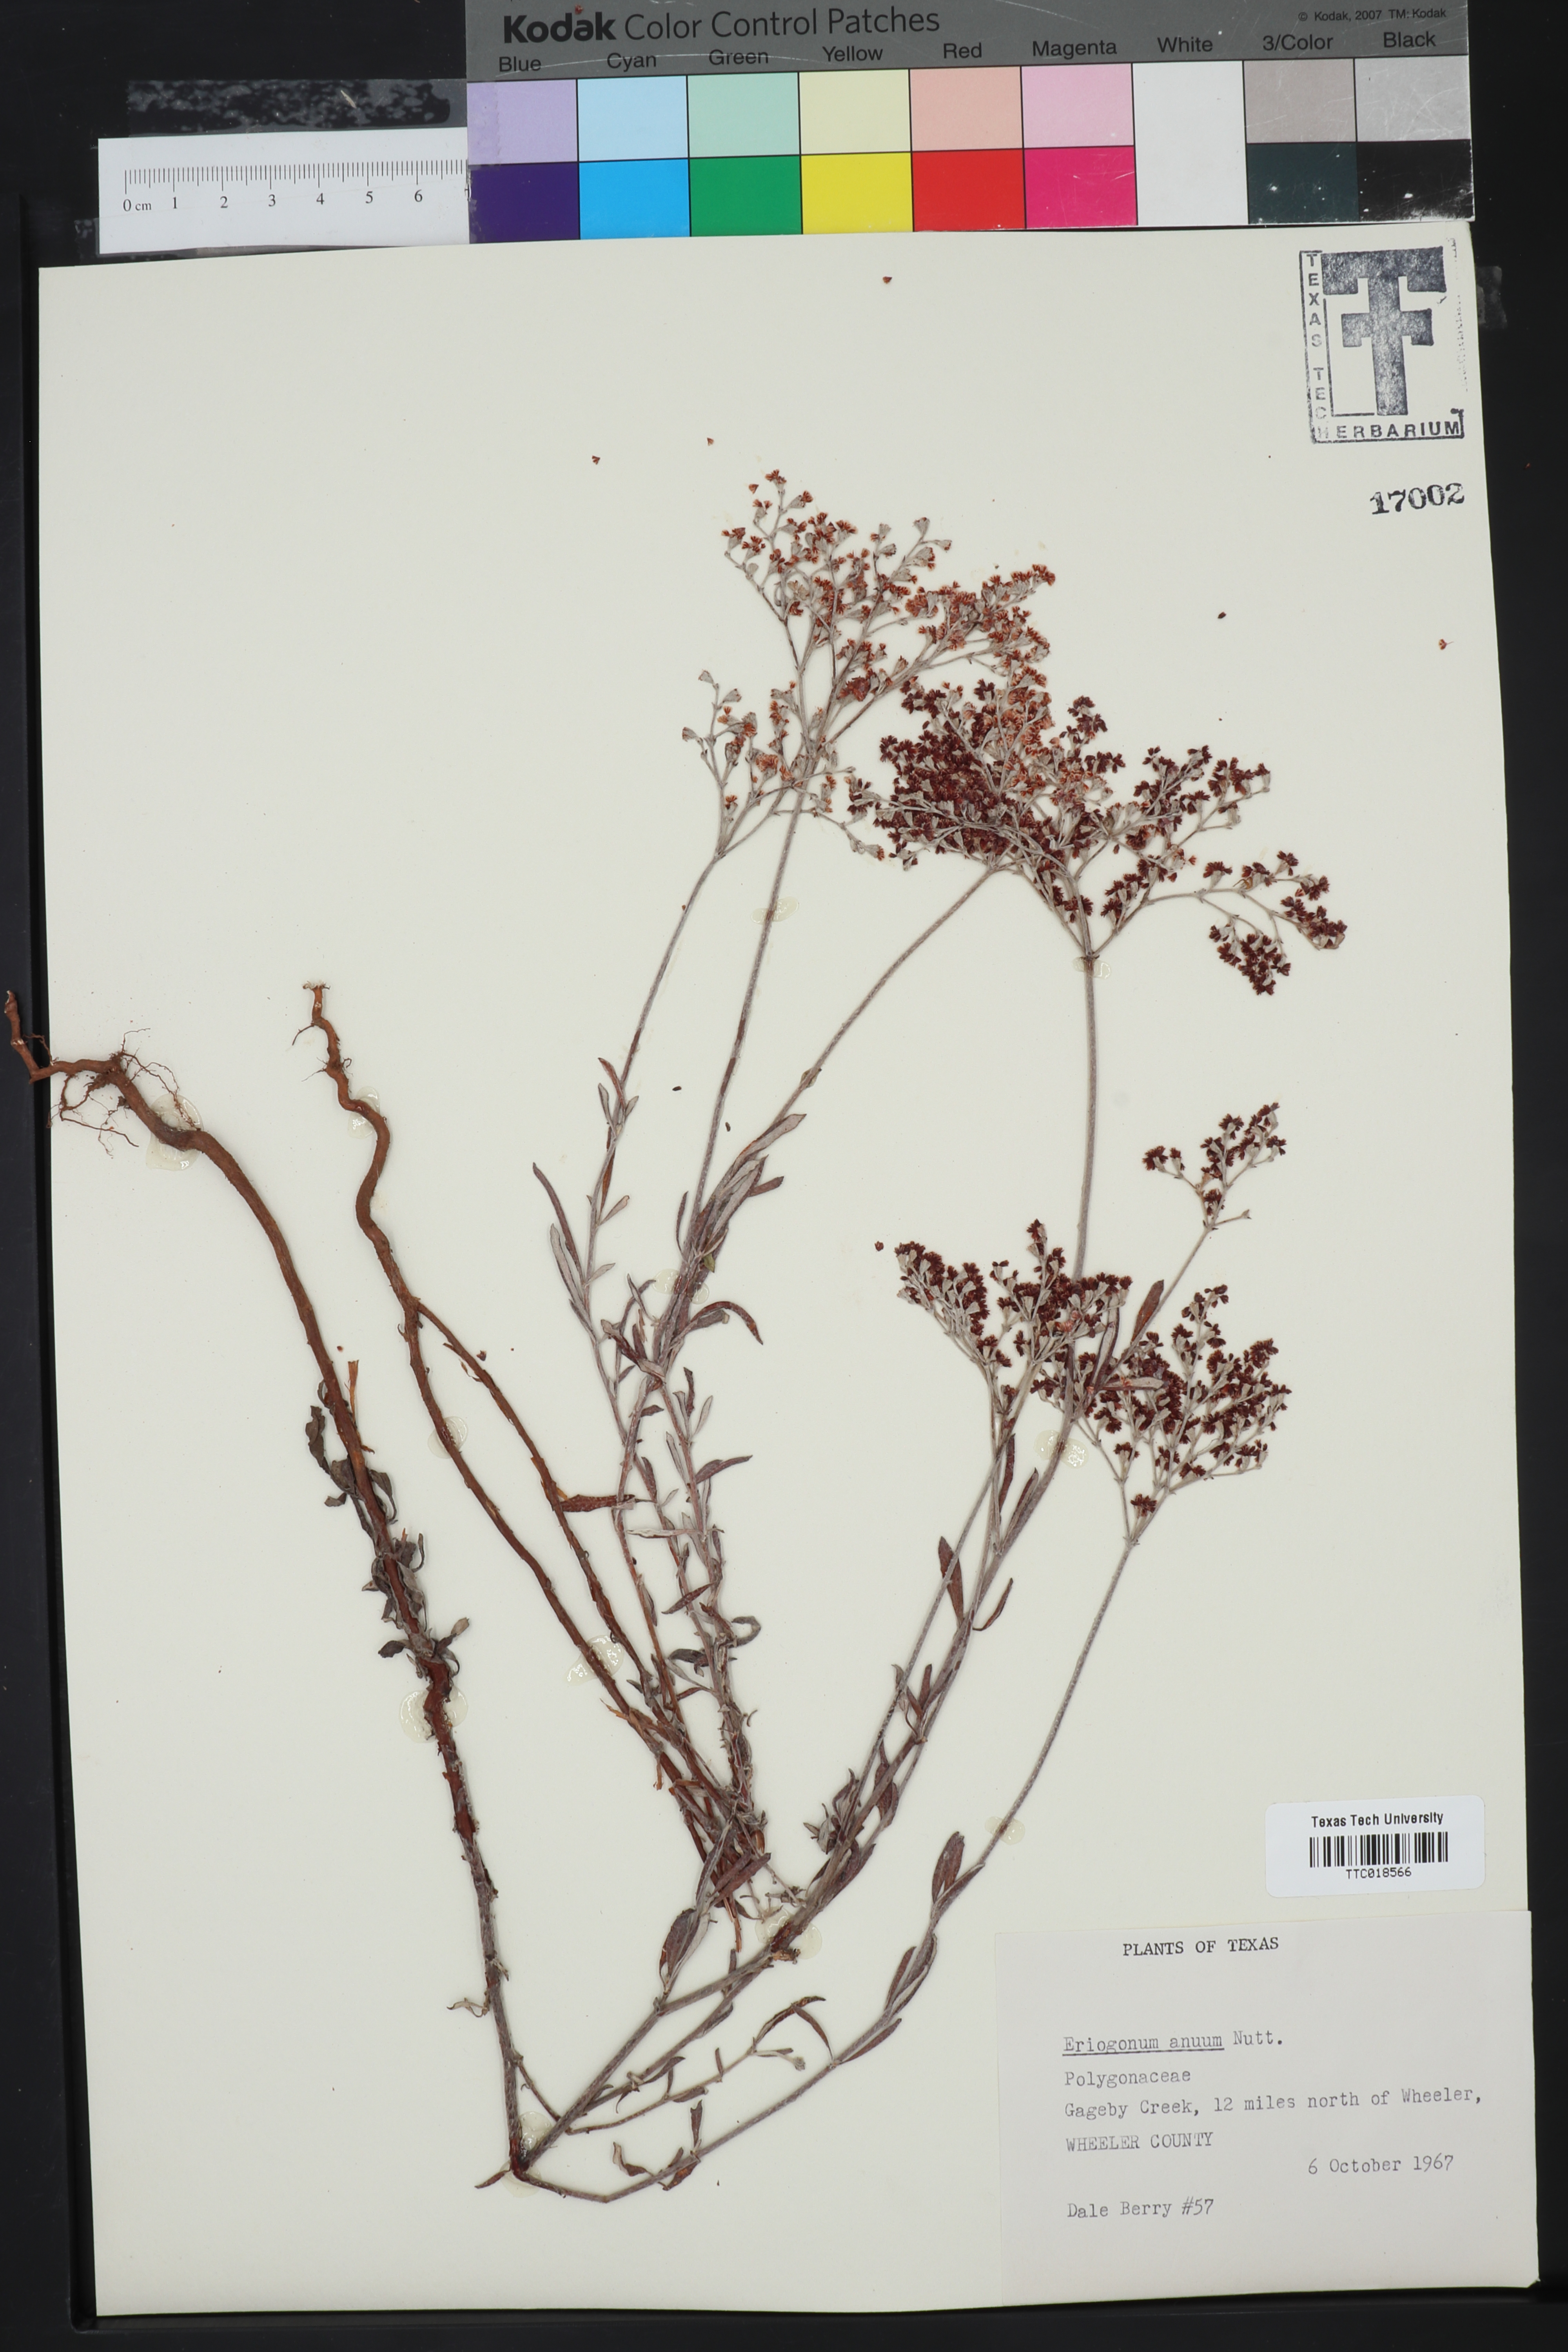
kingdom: Plantae
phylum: Tracheophyta
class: Magnoliopsida
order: Caryophyllales
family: Polygonaceae
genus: Eriogonum
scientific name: Eriogonum annuum
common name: Annual wild buckwheat
